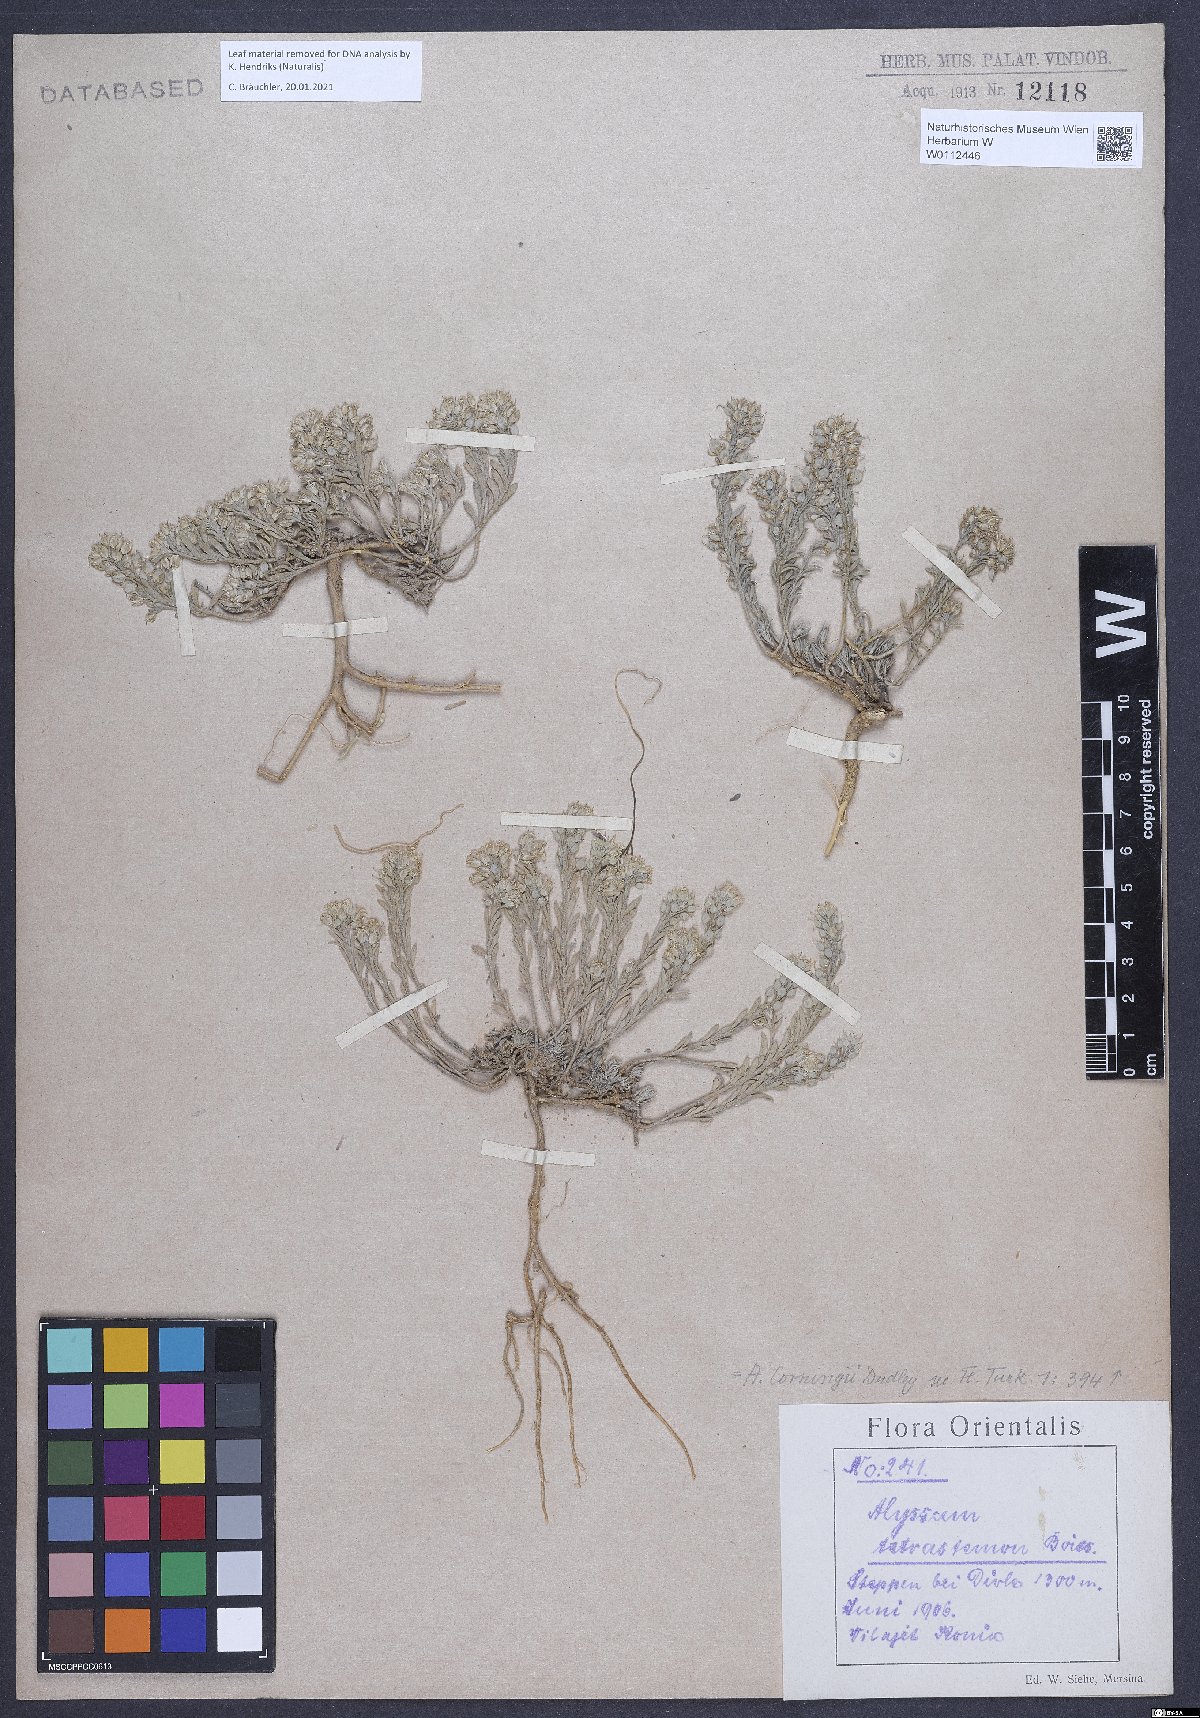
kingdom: Plantae
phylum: Tracheophyta
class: Magnoliopsida
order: Brassicales
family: Brassicaceae
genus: Alyssum
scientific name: Alyssum corningii
